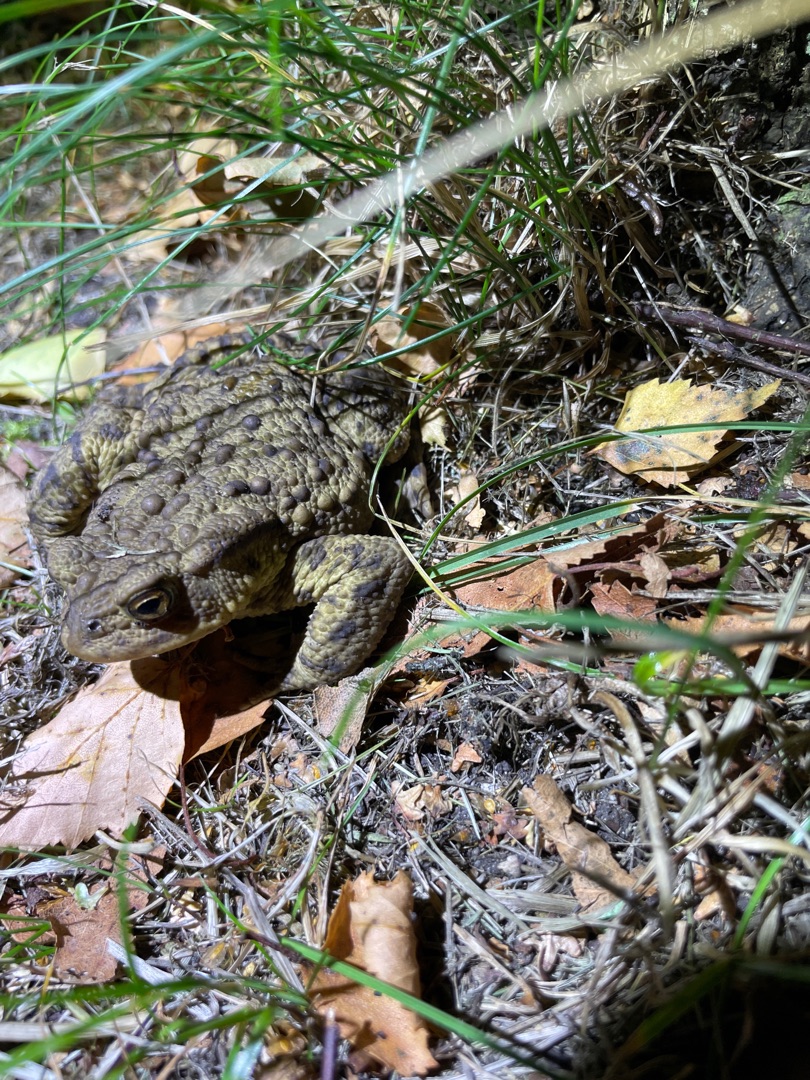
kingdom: Animalia
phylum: Chordata
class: Amphibia
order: Anura
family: Bufonidae
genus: Bufo
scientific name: Bufo bufo
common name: Skrubtudse
